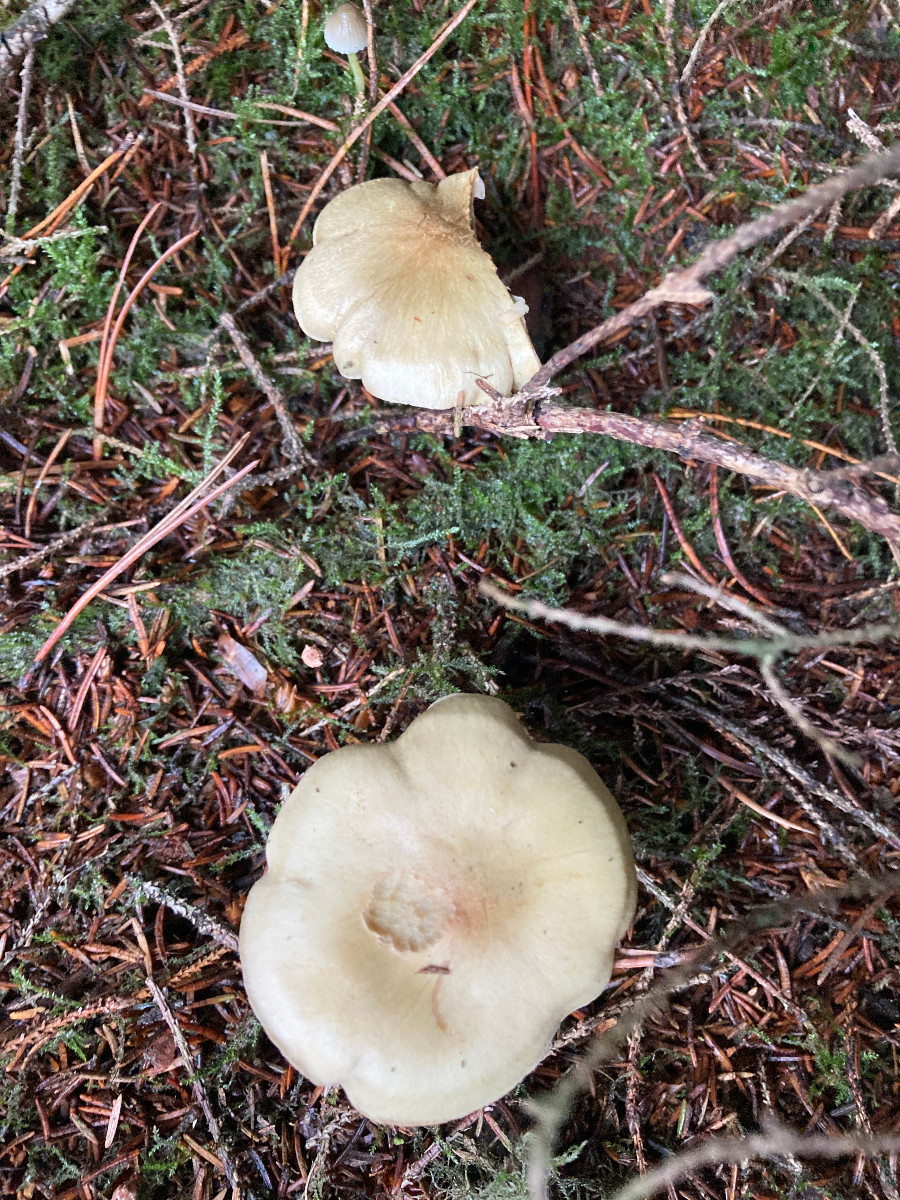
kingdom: Fungi
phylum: Basidiomycota
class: Agaricomycetes
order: Agaricales
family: Tricholomataceae
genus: Tricholoma
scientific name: Tricholoma aestuans
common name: kegle-ridderhat
